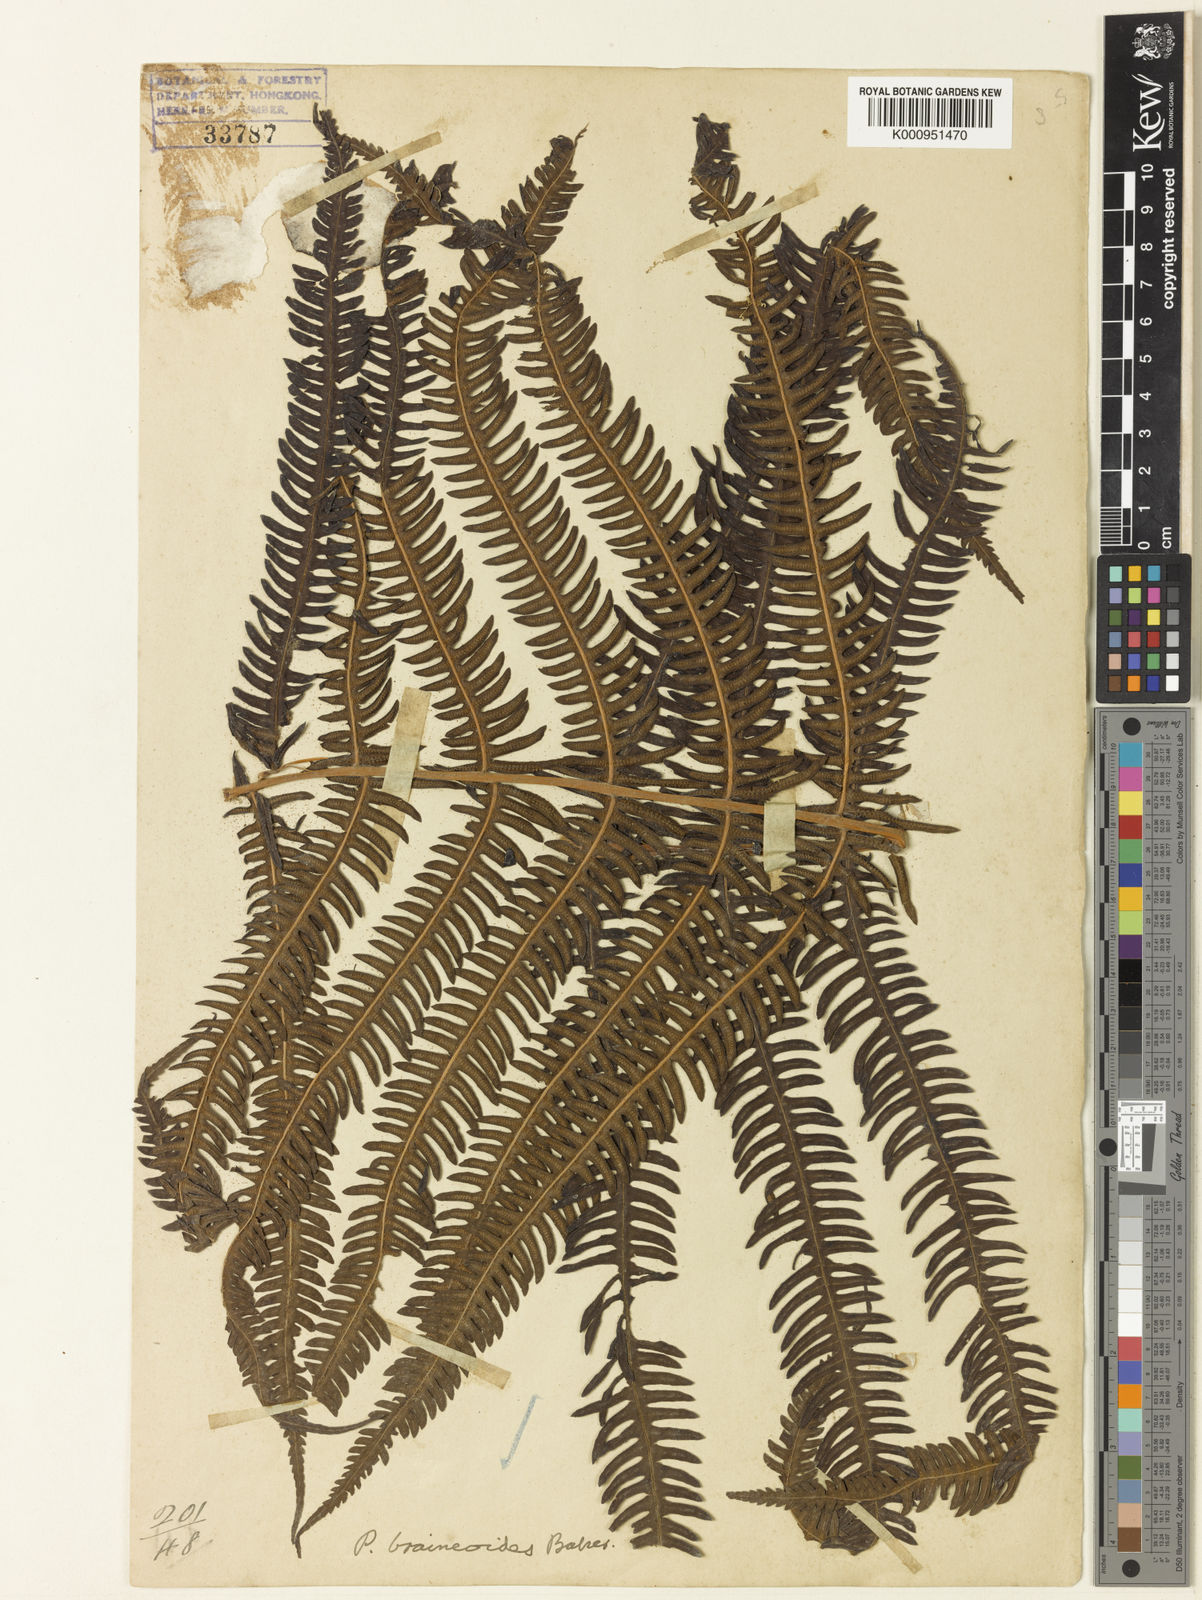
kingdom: Plantae
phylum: Tracheophyta
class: Polypodiopsida
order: Polypodiales
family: Thelypteridaceae
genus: Glaphyropteridopsis
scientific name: Glaphyropteridopsis erubescens
